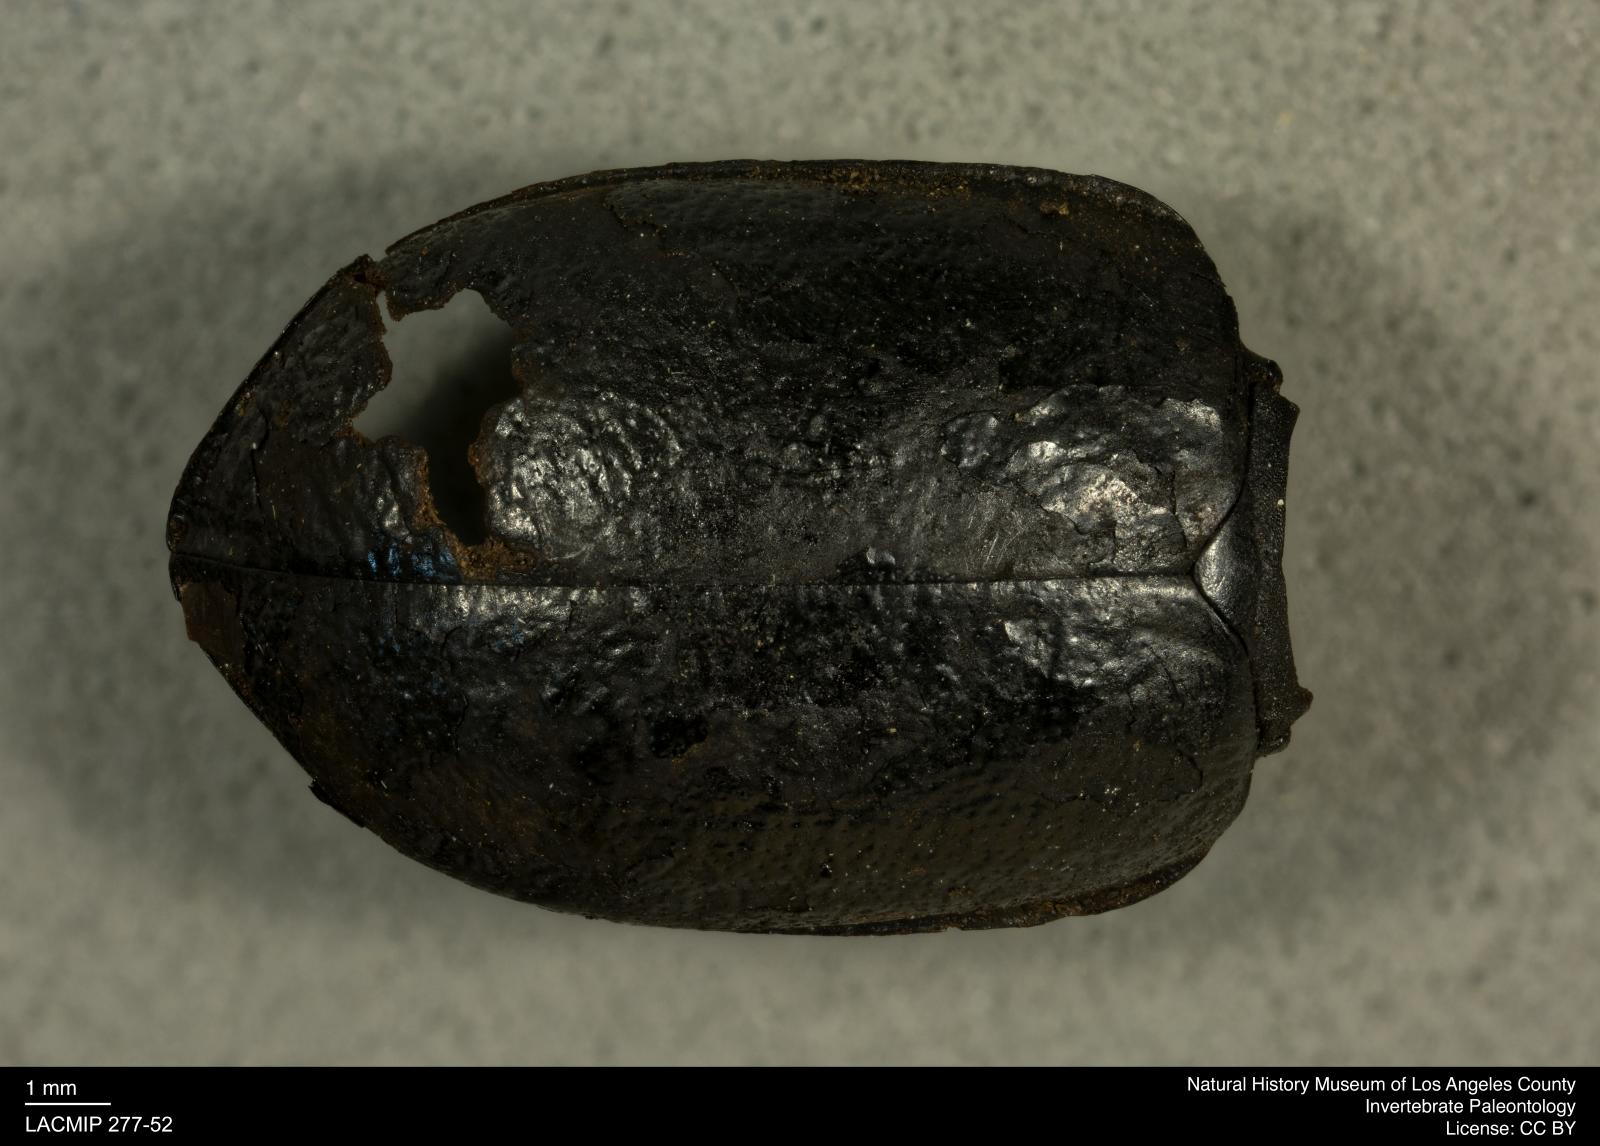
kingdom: Animalia
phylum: Arthropoda
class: Insecta
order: Coleoptera
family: Tenebrionidae
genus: Coniontis
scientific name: Coniontis abdominalis
